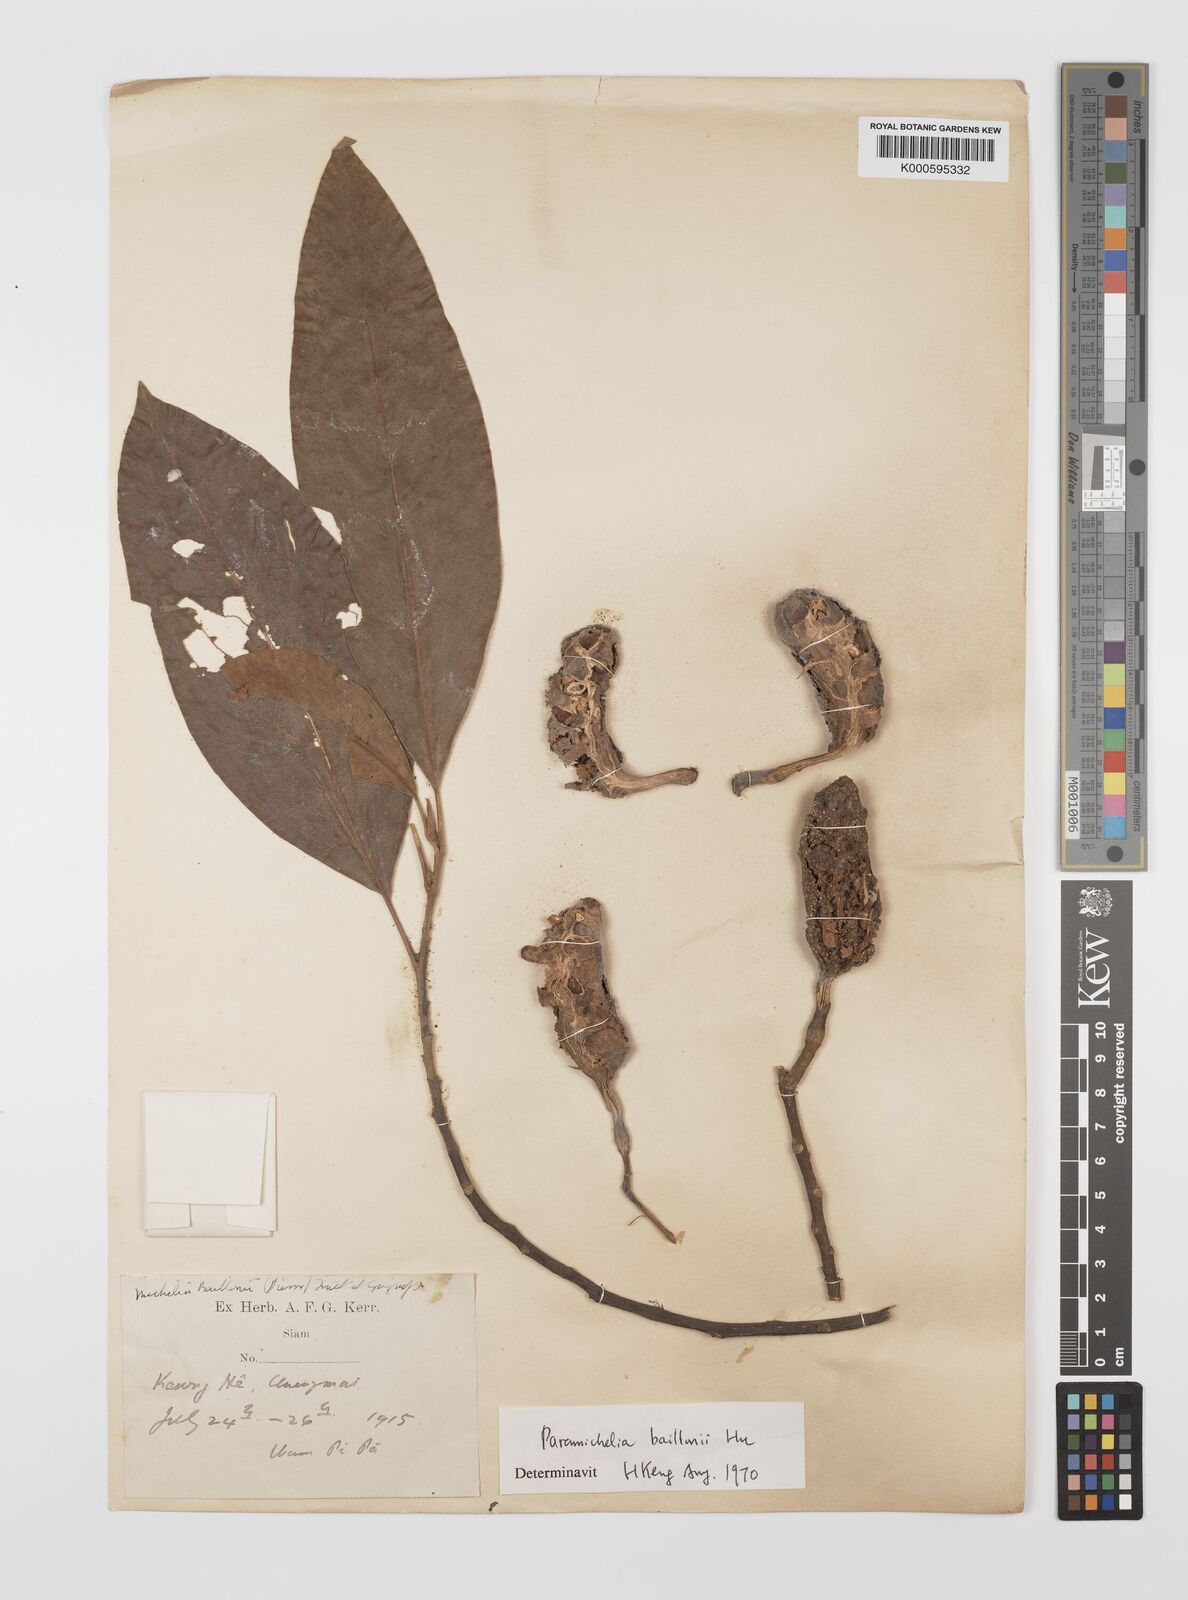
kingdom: Plantae
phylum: Tracheophyta
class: Magnoliopsida
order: Magnoliales
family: Magnoliaceae
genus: Magnolia
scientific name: Magnolia baillonii
